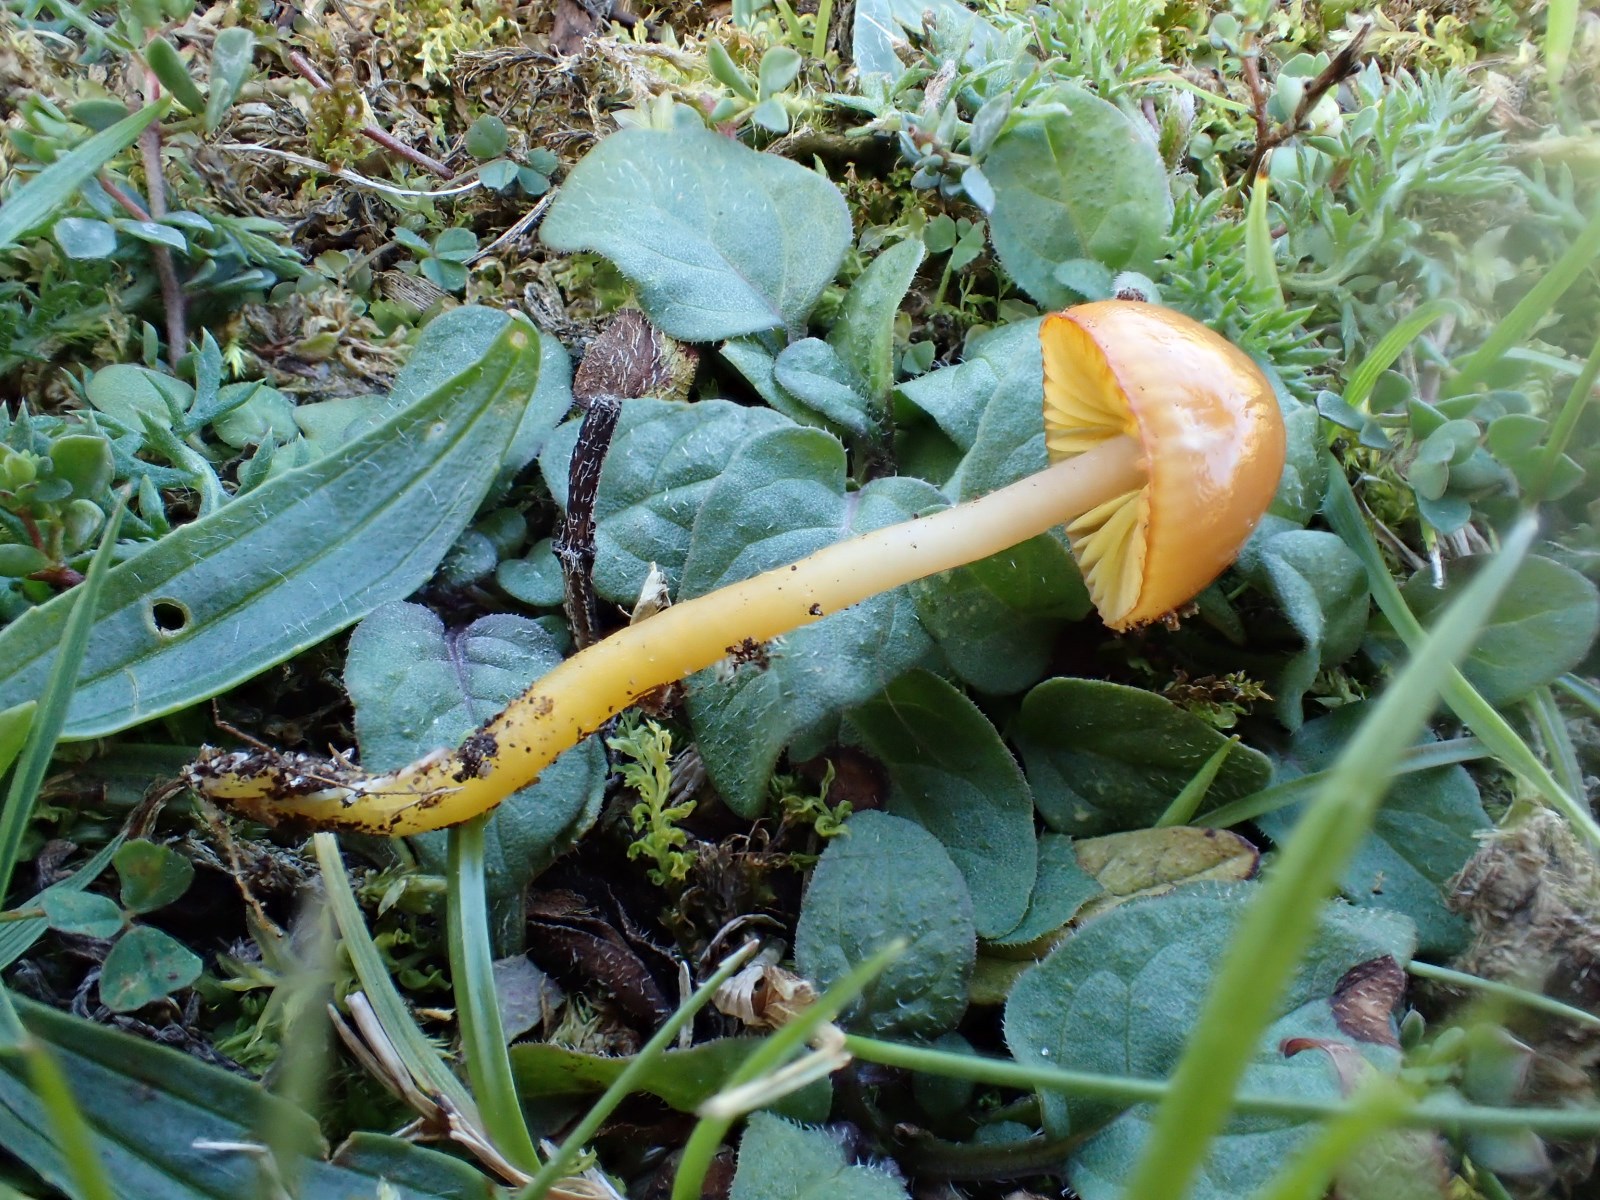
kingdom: Fungi
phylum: Basidiomycota
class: Agaricomycetes
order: Agaricales
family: Hygrophoraceae
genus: Gliophorus
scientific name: Gliophorus laetus
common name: brusk-vokshat
